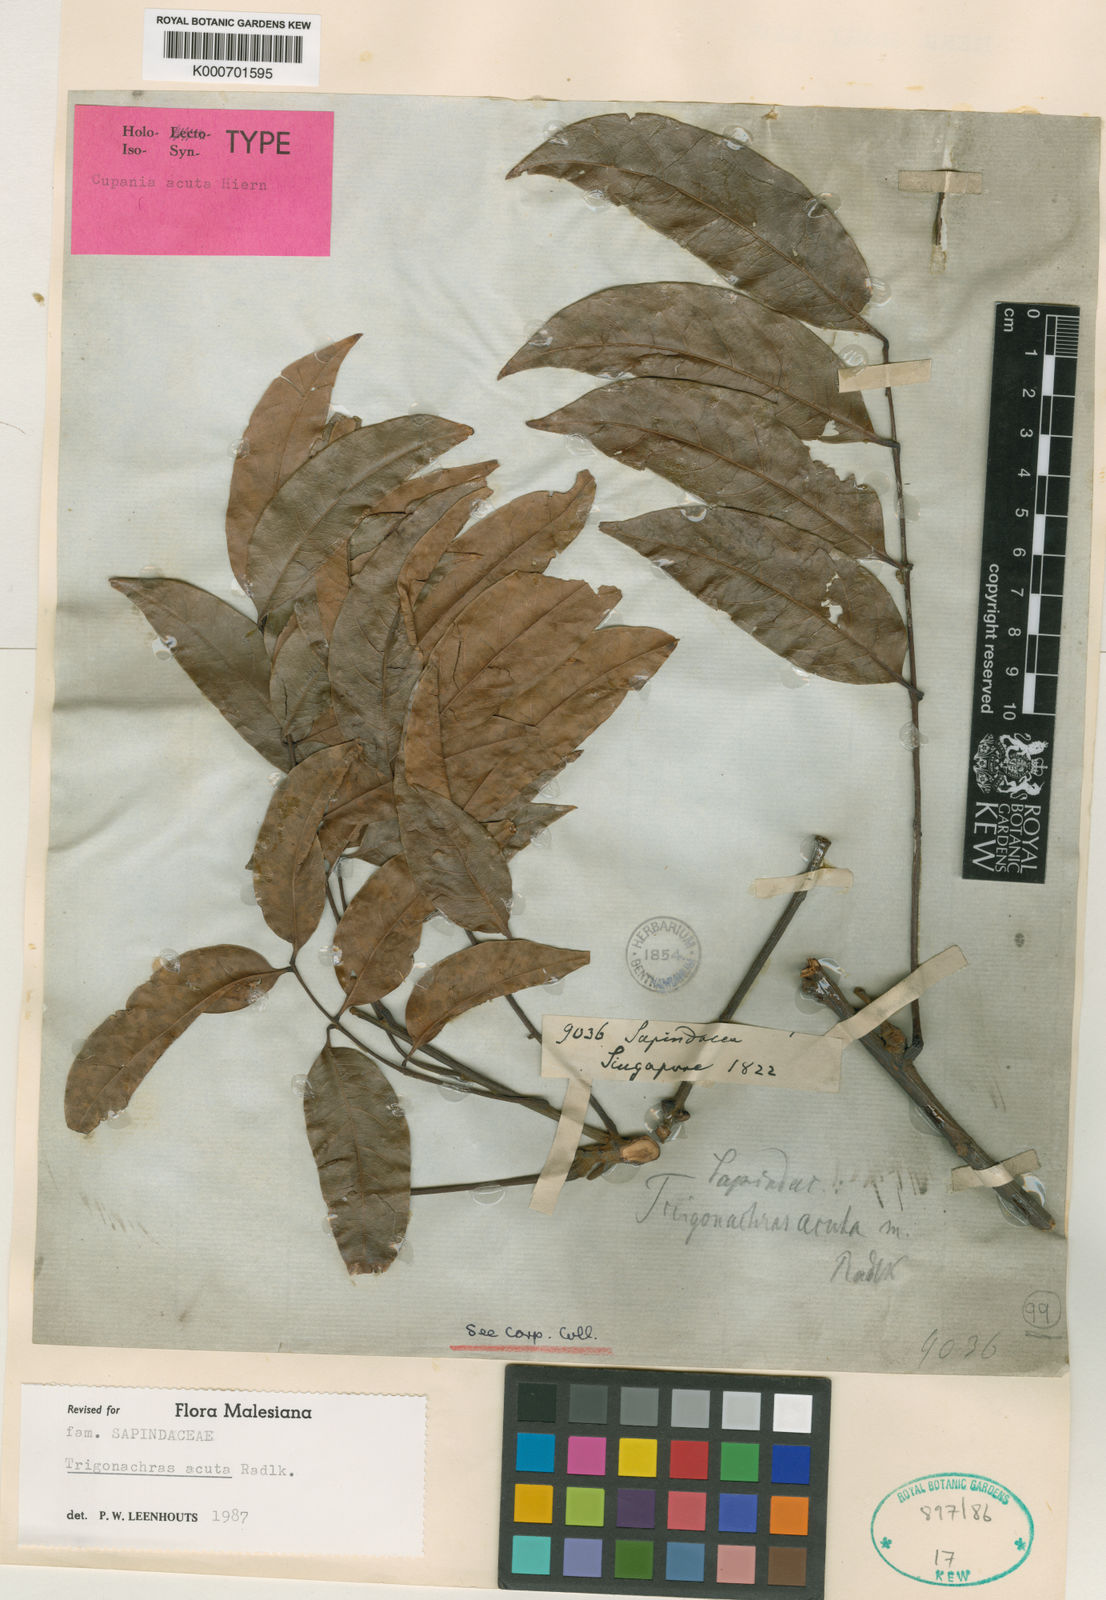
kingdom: Plantae
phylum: Tracheophyta
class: Magnoliopsida
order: Sapindales
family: Sapindaceae
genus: Trigonachras
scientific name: Trigonachras acuta
